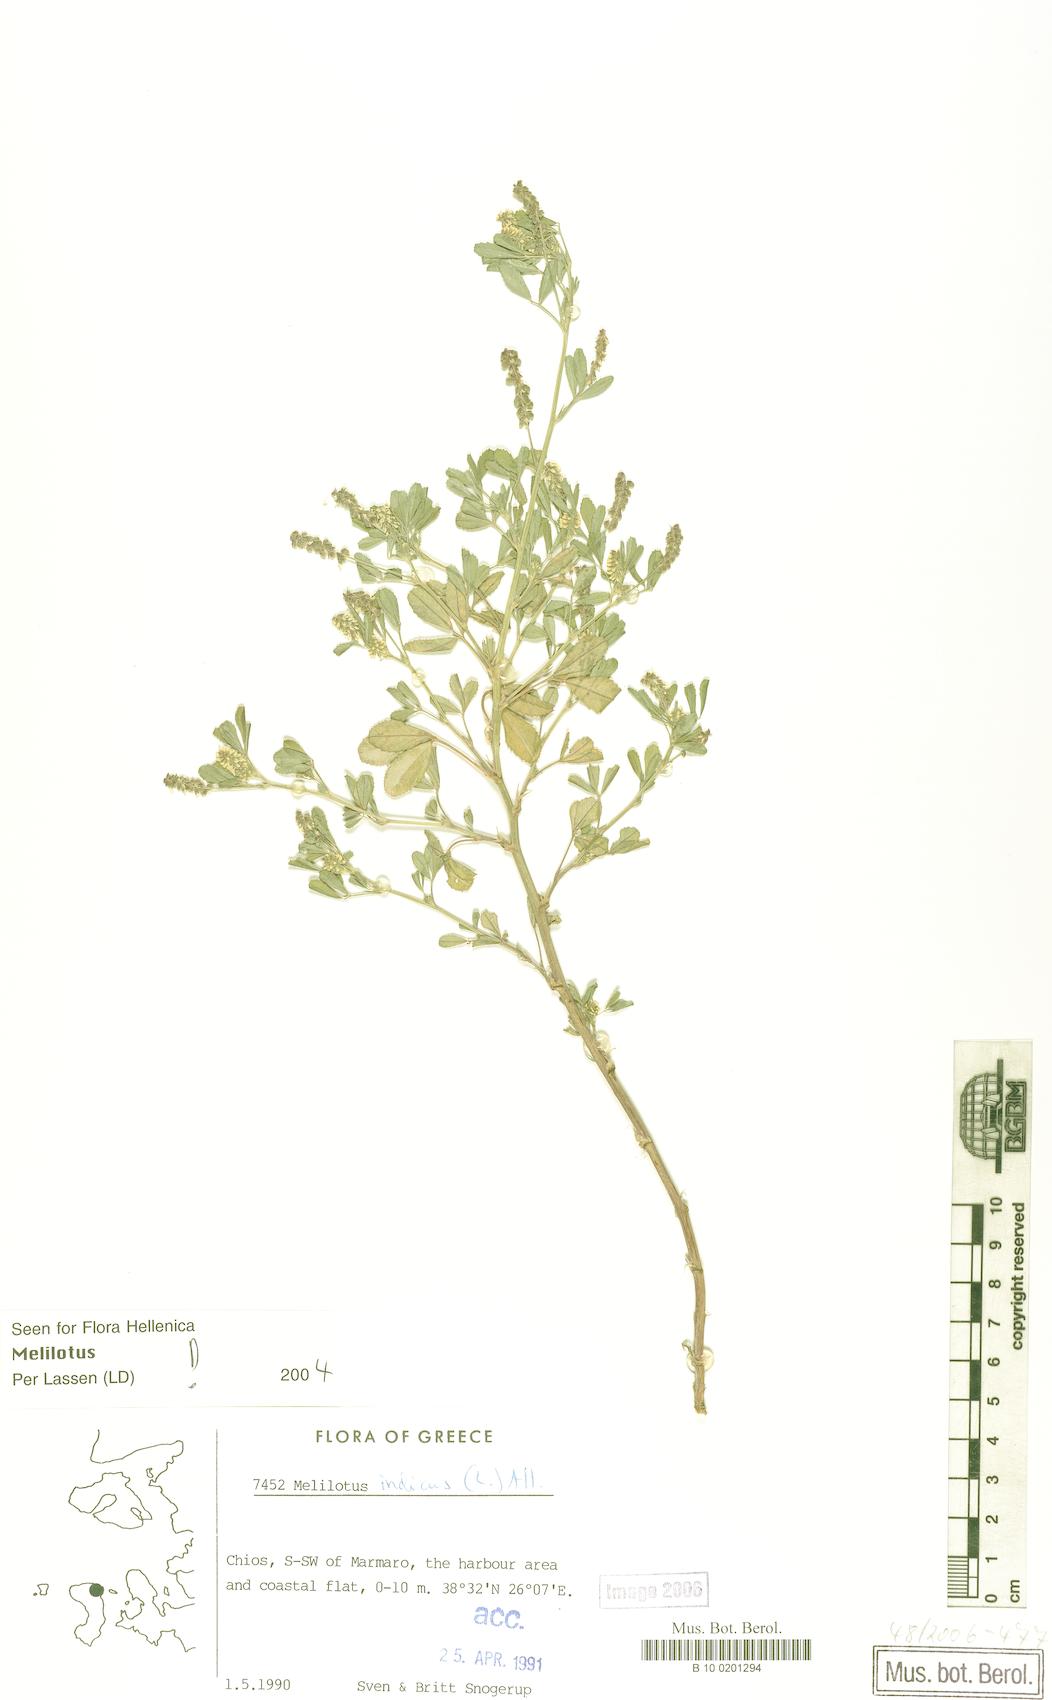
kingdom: Plantae
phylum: Tracheophyta
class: Magnoliopsida
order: Fabales
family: Fabaceae
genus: Melilotus
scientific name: Melilotus indicus
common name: Small melilot
